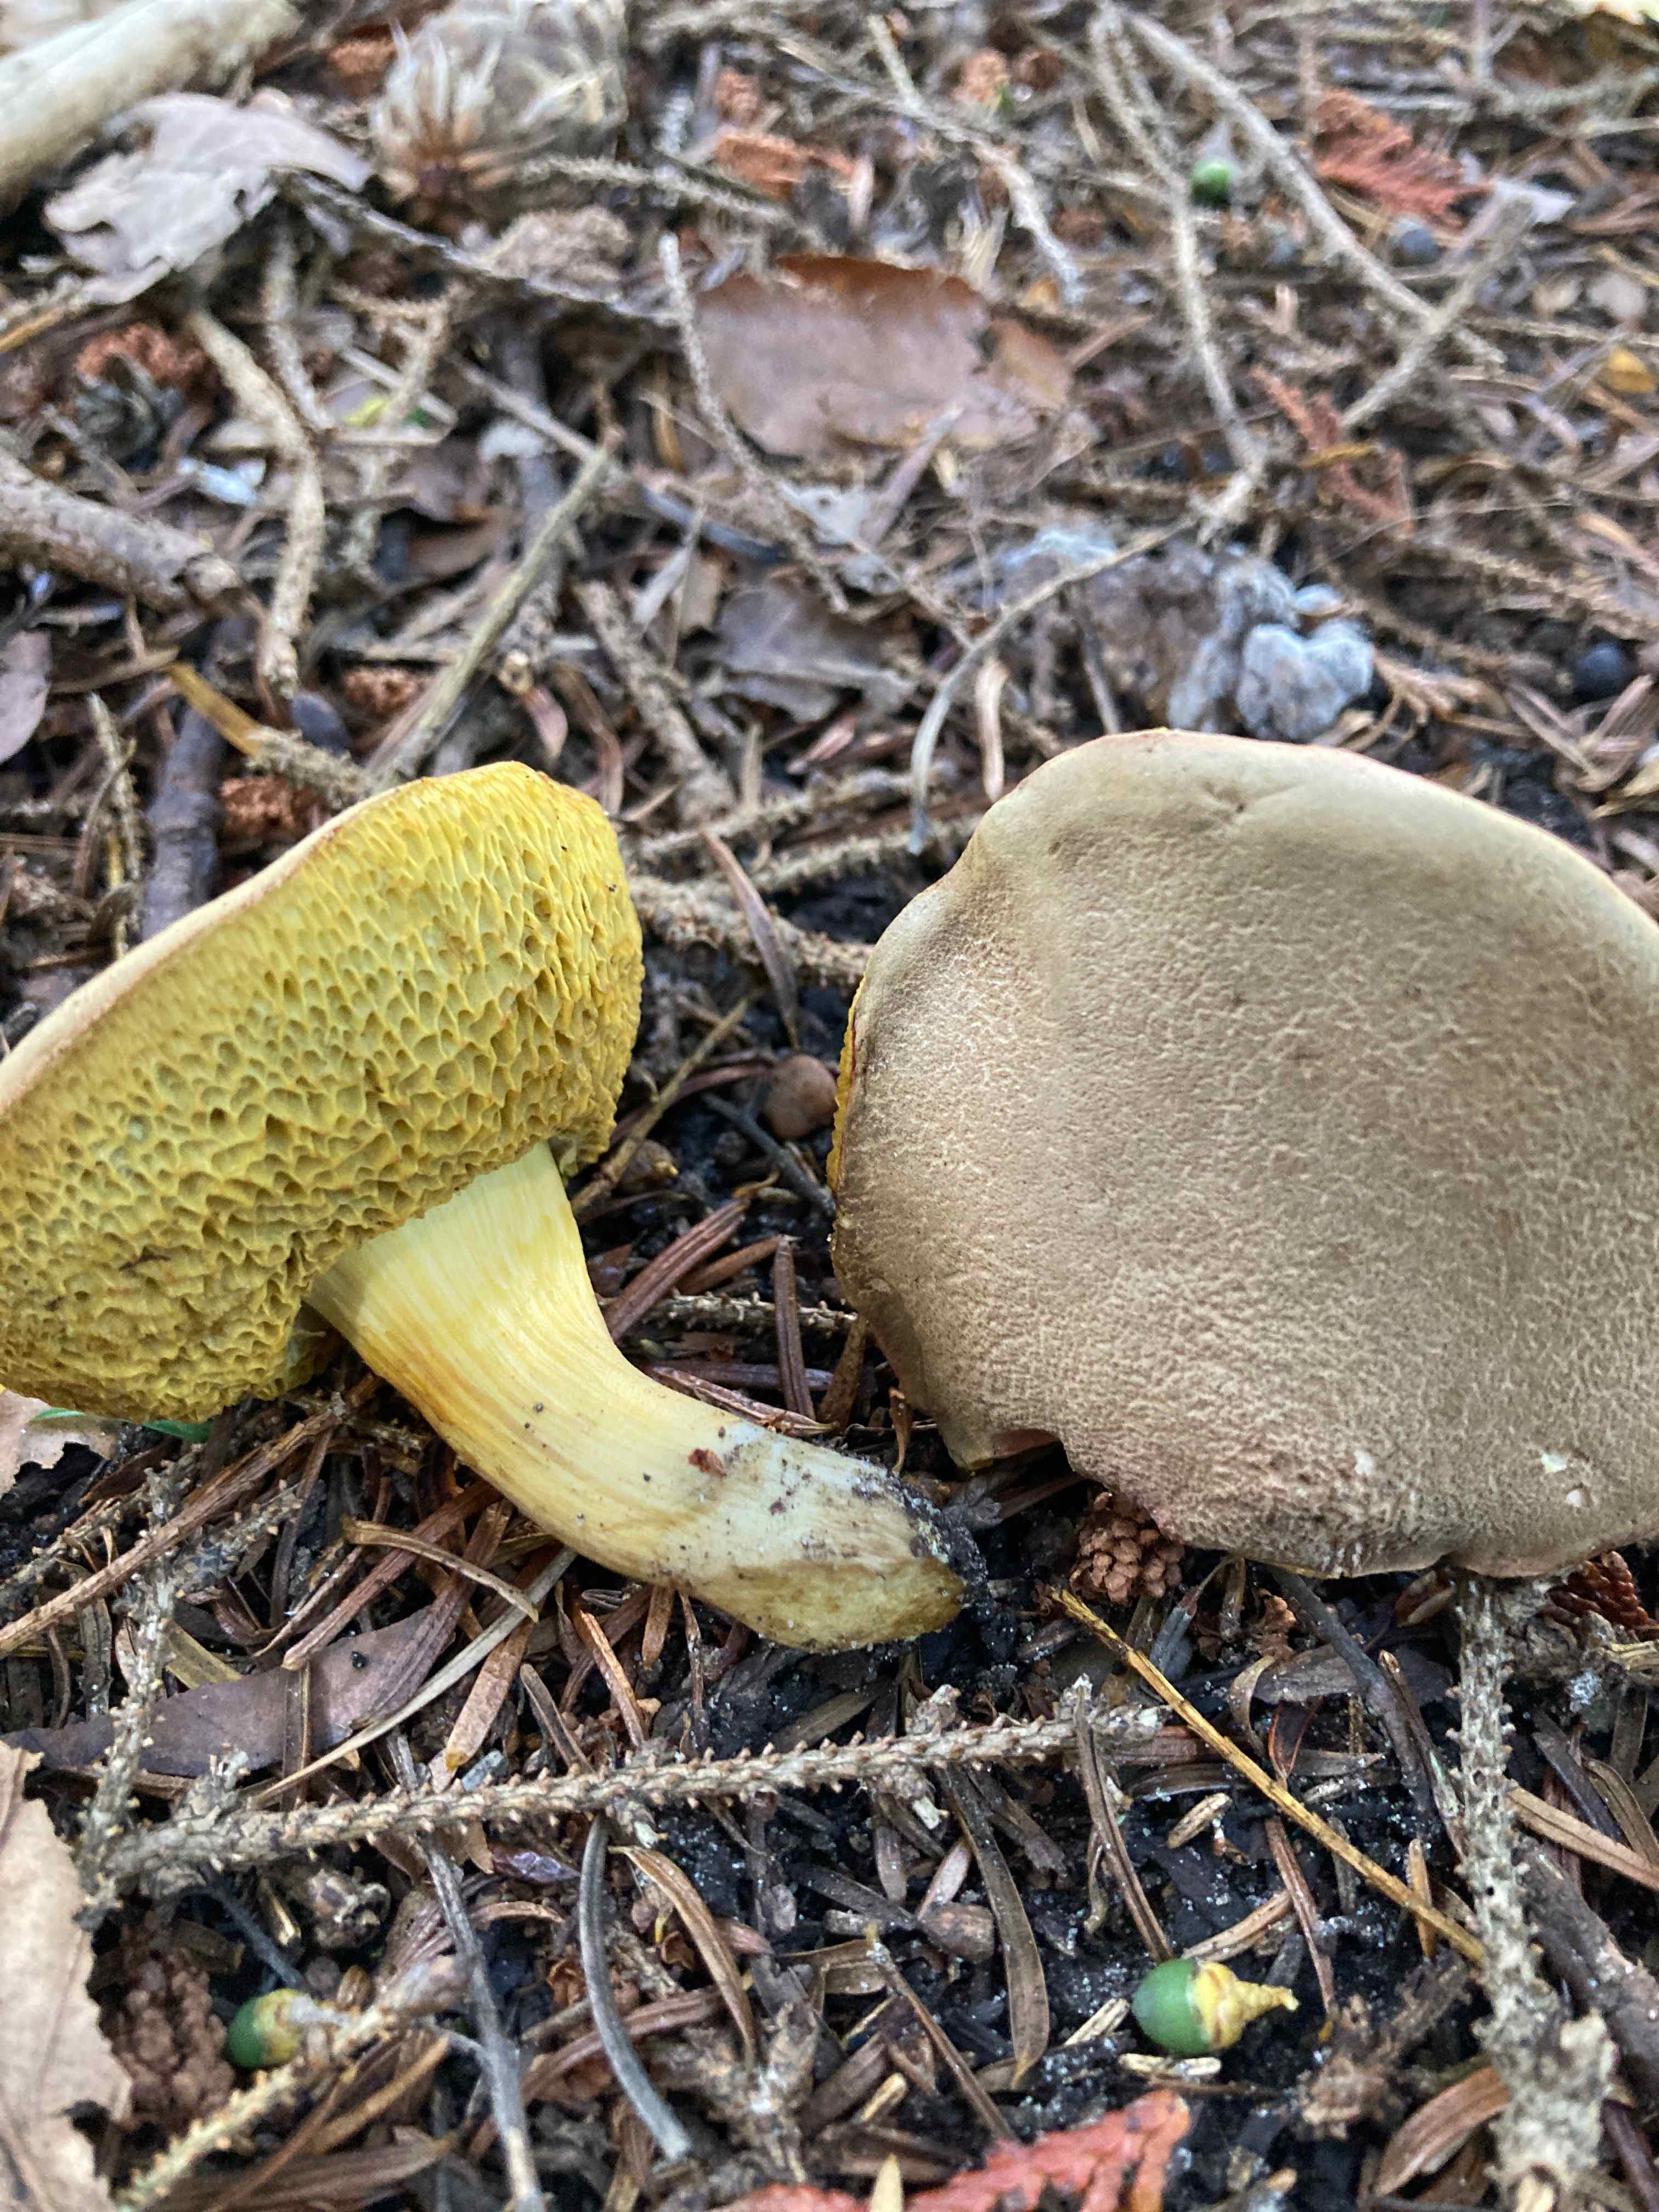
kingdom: Fungi
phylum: Basidiomycota
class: Agaricomycetes
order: Boletales
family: Boletaceae
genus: Hortiboletus
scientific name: Hortiboletus engelii
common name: fersken-rørhat
